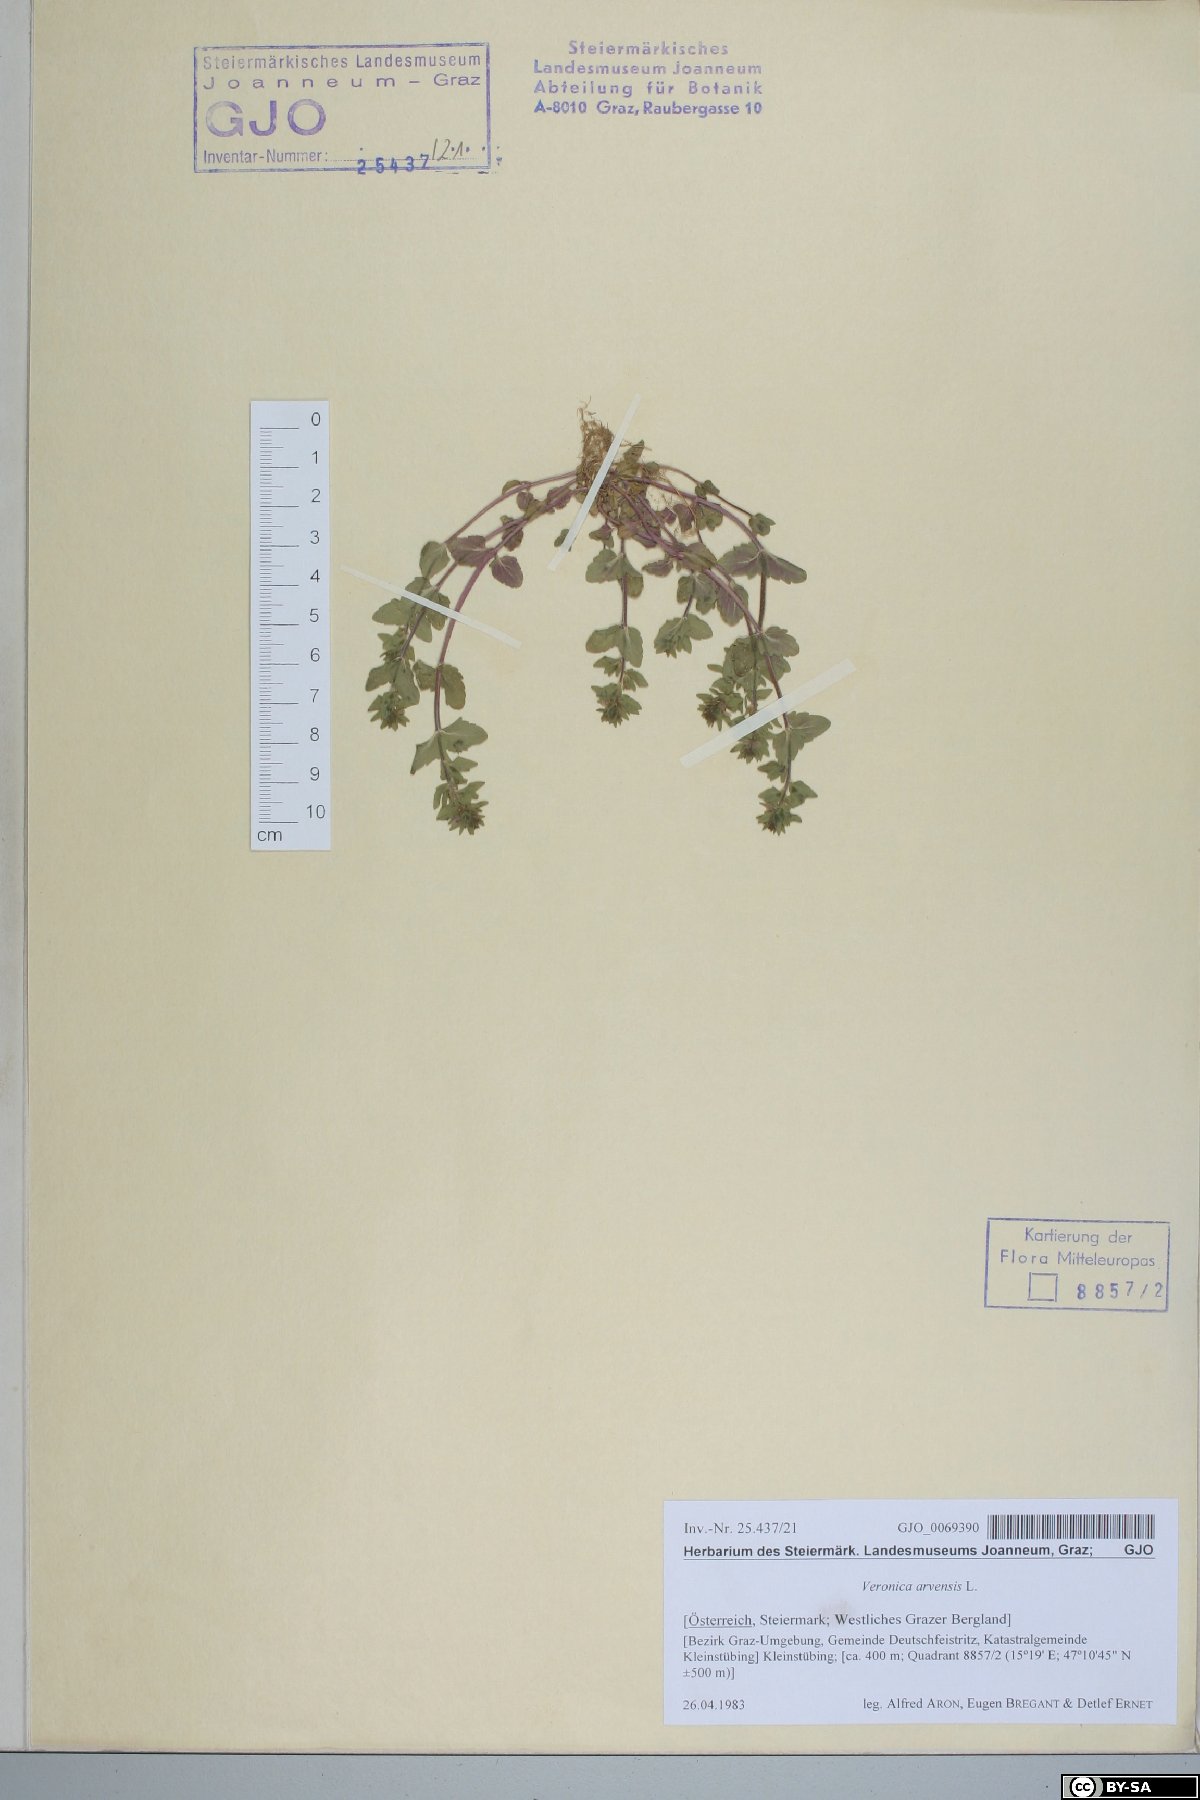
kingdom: Plantae
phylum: Tracheophyta
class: Magnoliopsida
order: Lamiales
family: Plantaginaceae
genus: Veronica
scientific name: Veronica arvensis
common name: Corn speedwell
